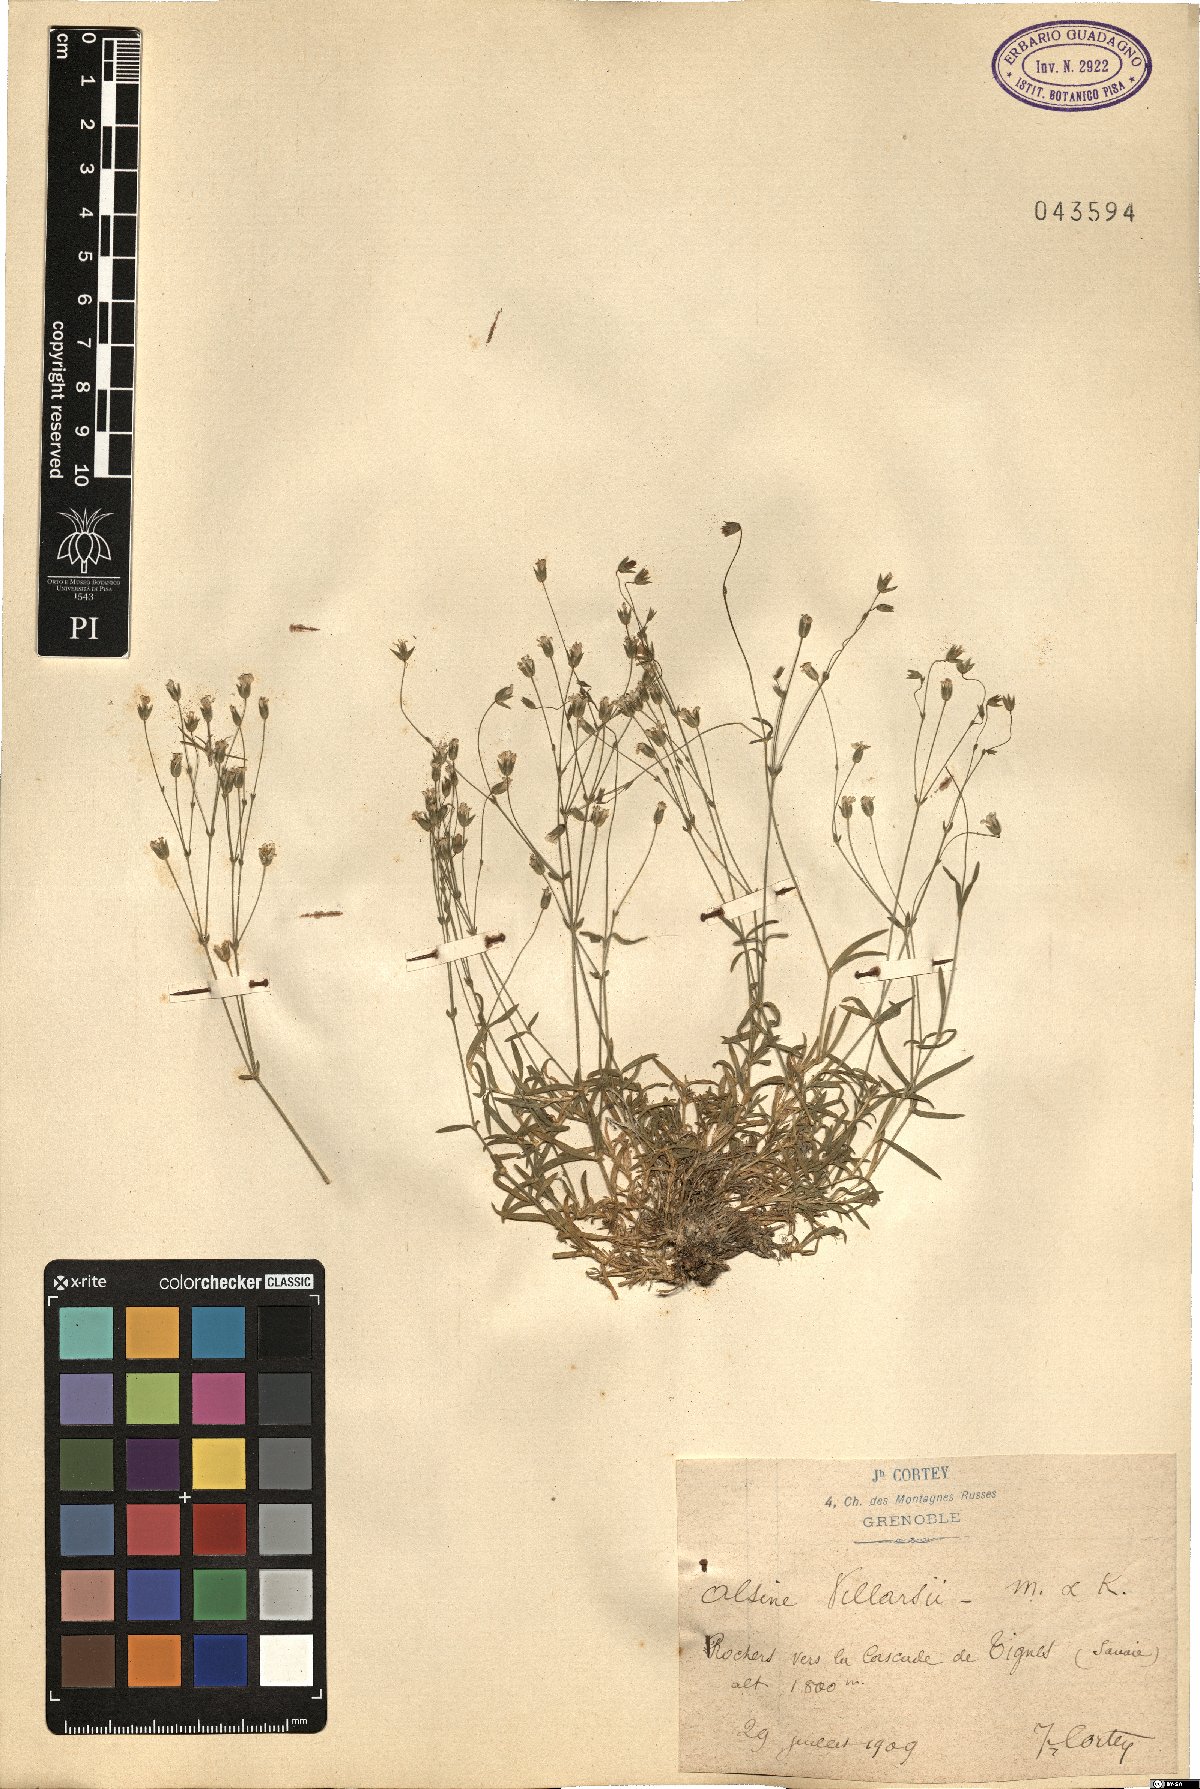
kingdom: Plantae
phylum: Tracheophyta
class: Magnoliopsida
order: Caryophyllales
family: Caryophyllaceae
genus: Sabulina
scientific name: Sabulina villarii
